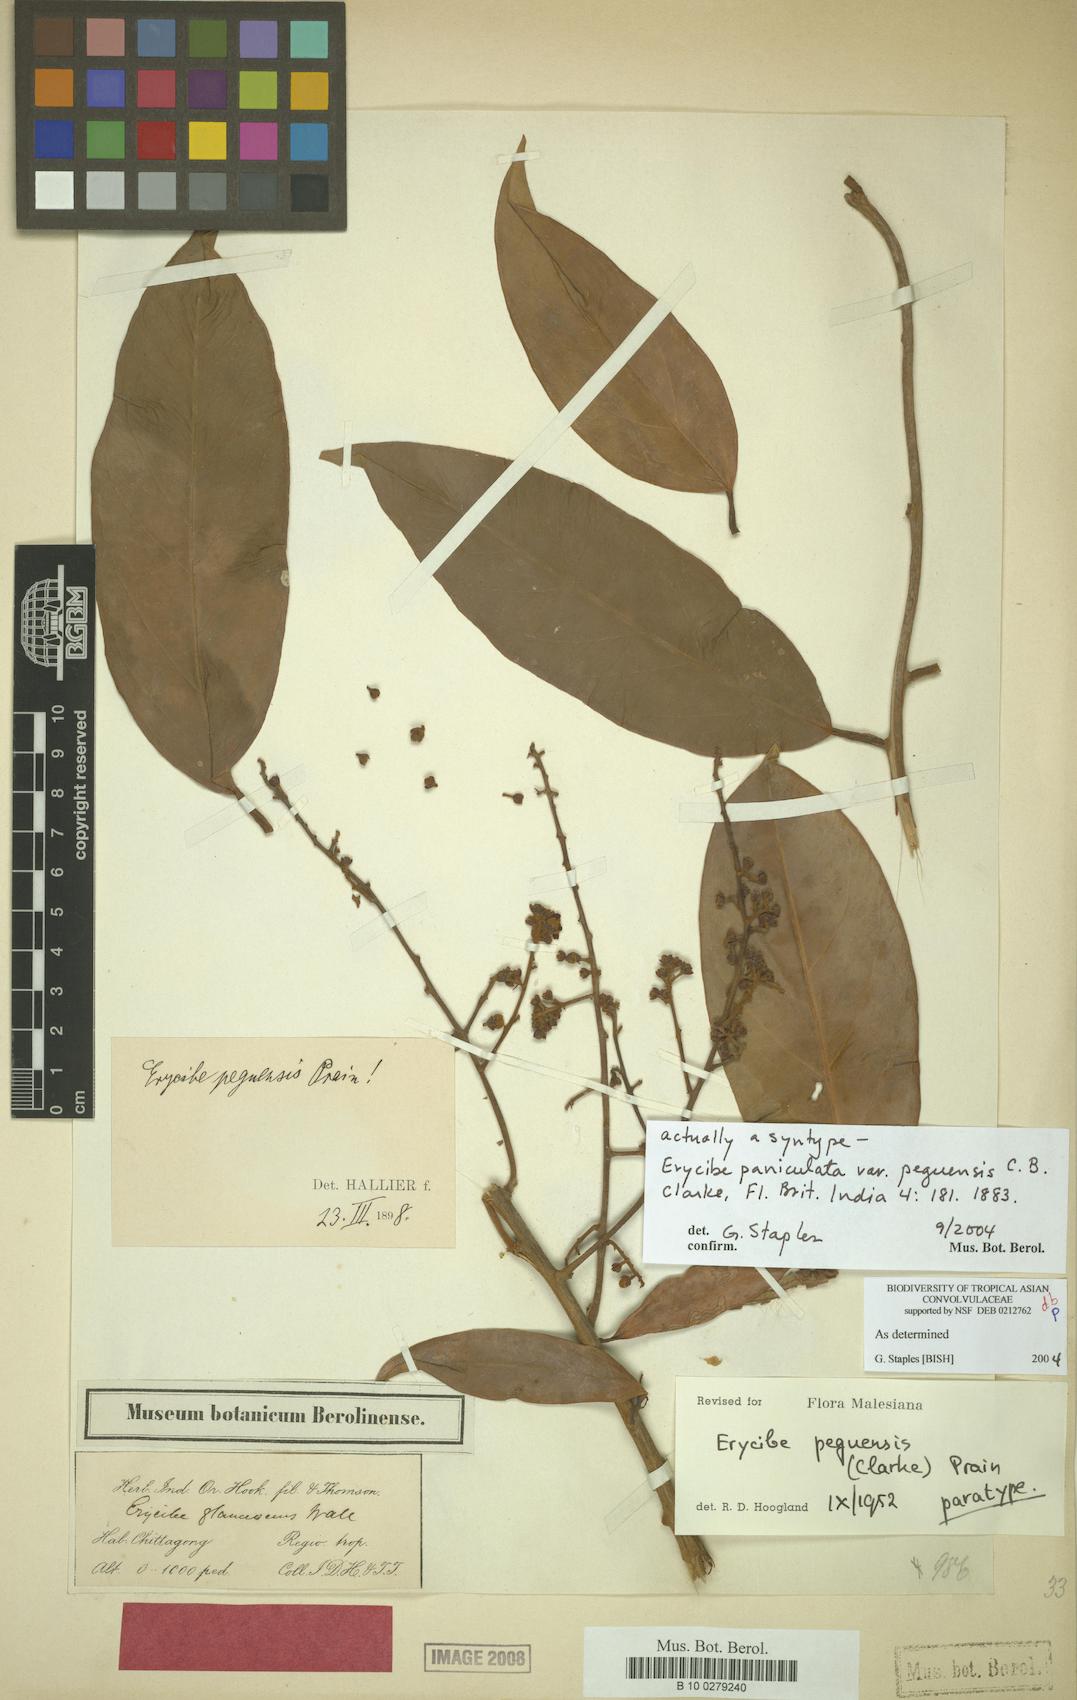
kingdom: Plantae
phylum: Tracheophyta
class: Magnoliopsida
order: Solanales
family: Convolvulaceae
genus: Argyreia
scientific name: Argyreia capitiformis
